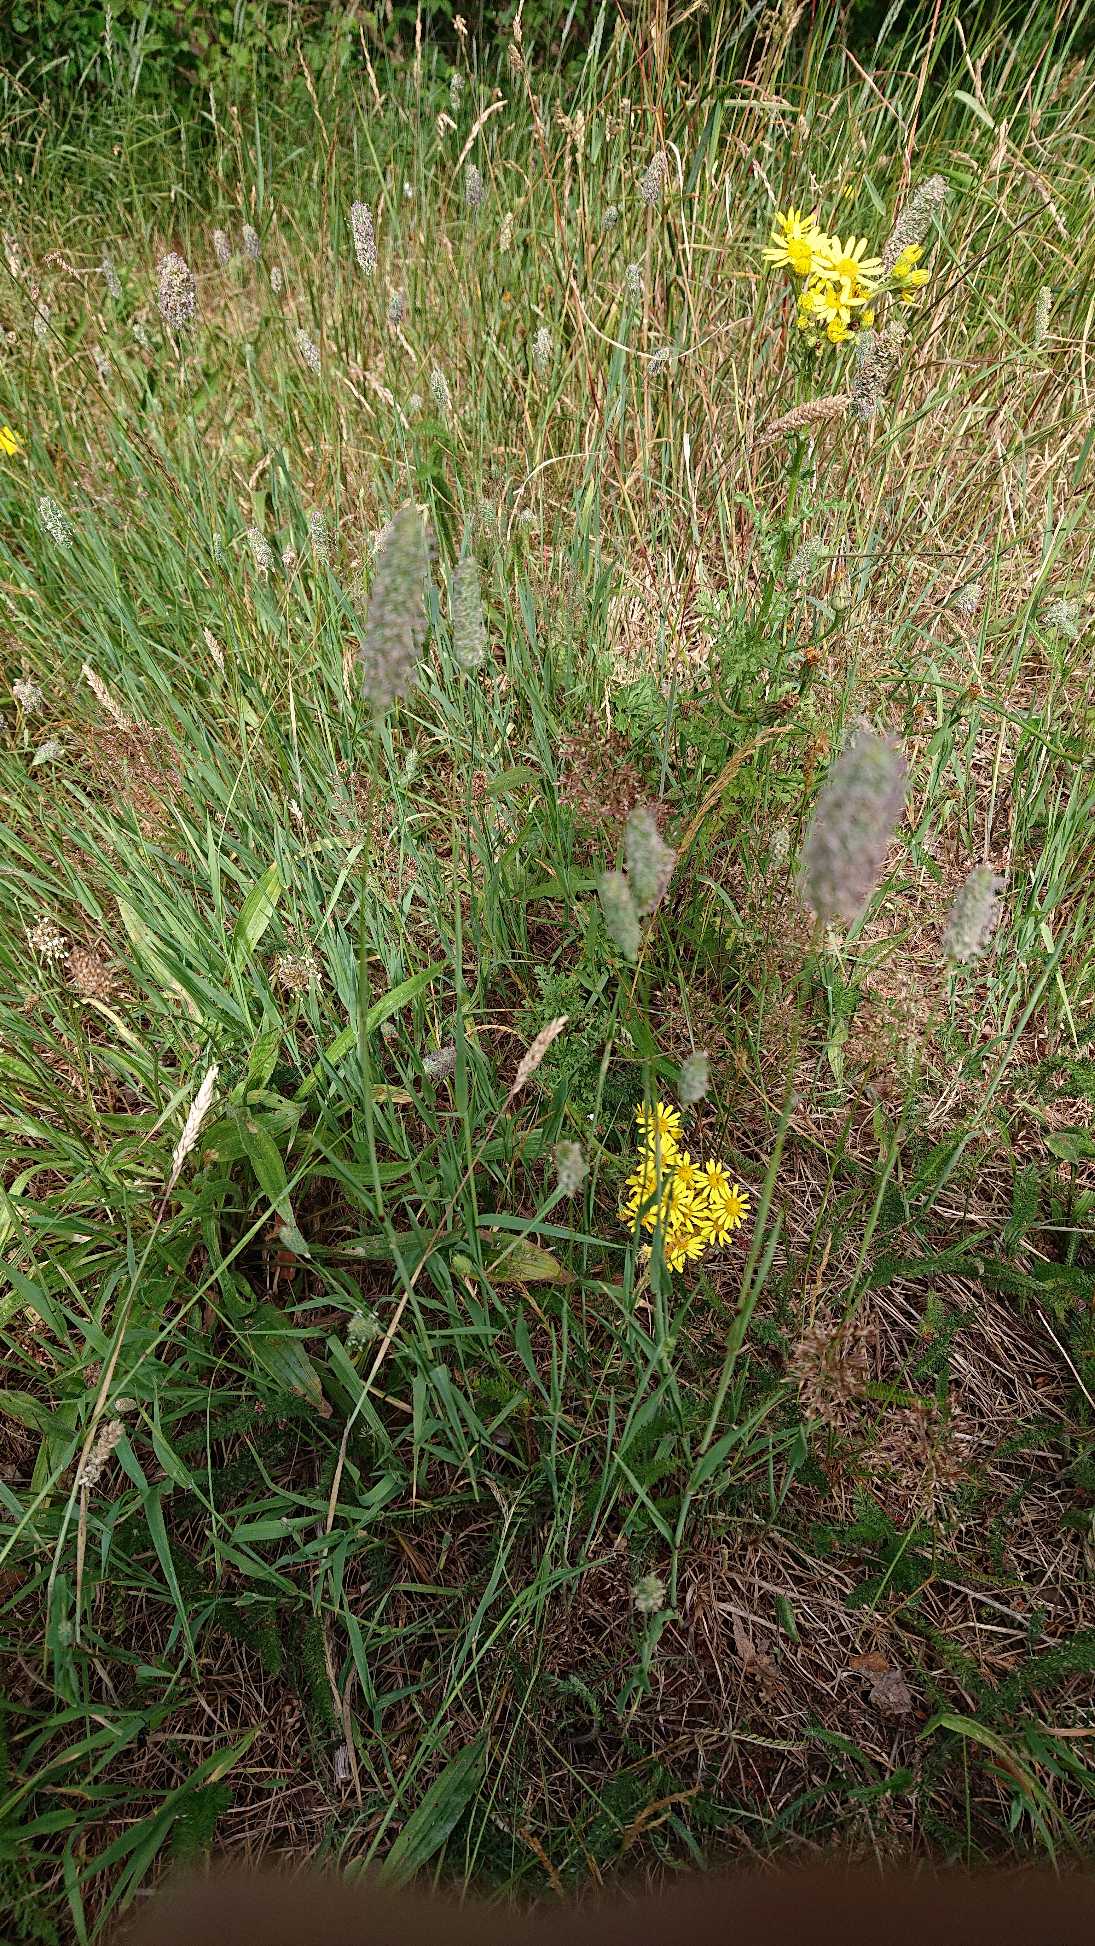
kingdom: Plantae
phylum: Tracheophyta
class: Liliopsida
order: Poales
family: Poaceae
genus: Phleum
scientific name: Phleum pratense
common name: Eng-rottehale
